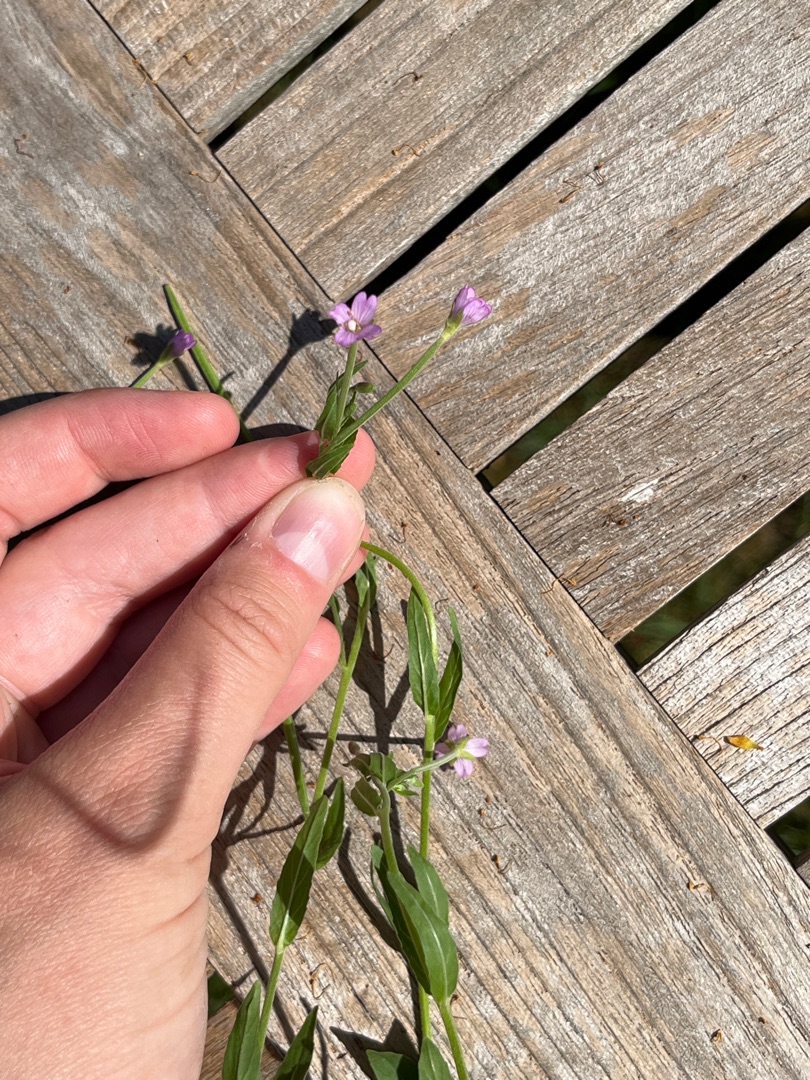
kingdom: Plantae
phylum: Tracheophyta
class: Magnoliopsida
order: Myrtales
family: Onagraceae
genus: Epilobium
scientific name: Epilobium
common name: Dueurtslægten
